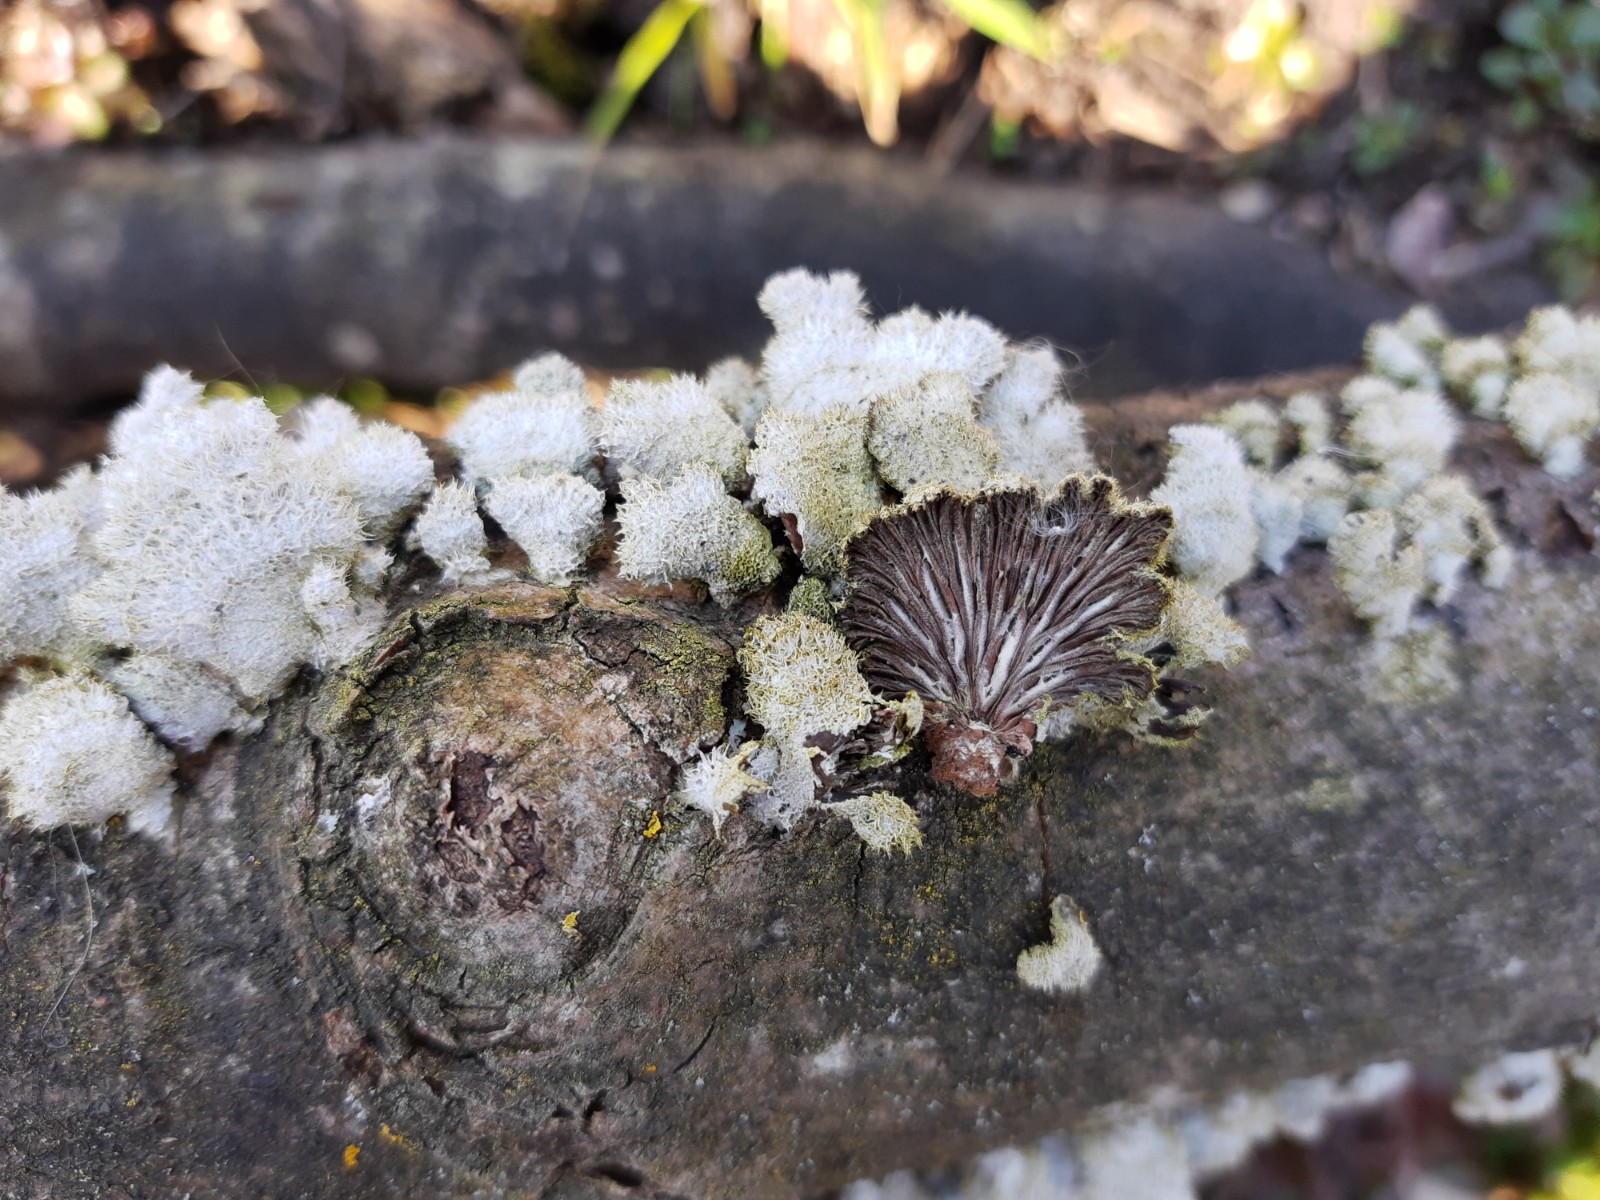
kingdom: Fungi
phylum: Basidiomycota
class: Agaricomycetes
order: Agaricales
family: Schizophyllaceae
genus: Schizophyllum
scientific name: Schizophyllum commune
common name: kløvblad
